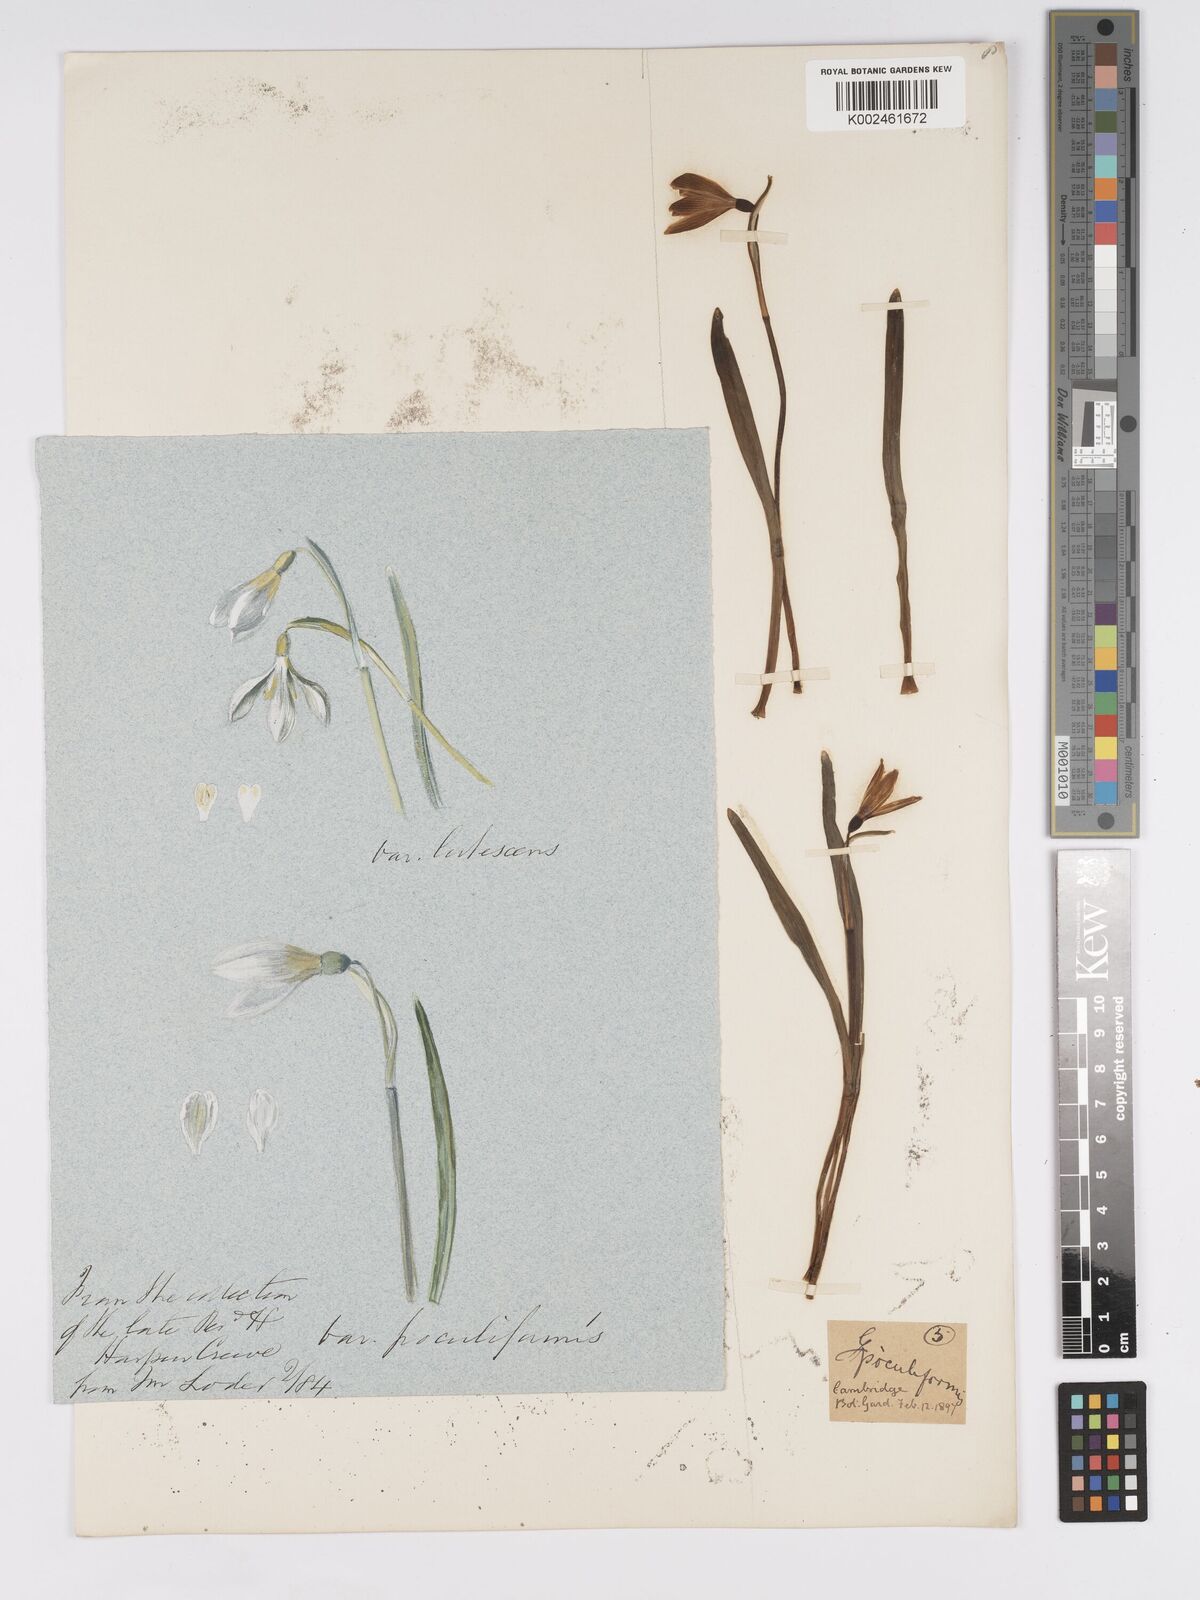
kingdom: Plantae
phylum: Tracheophyta
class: Liliopsida
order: Asparagales
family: Amaryllidaceae
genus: Galanthus
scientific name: Galanthus
